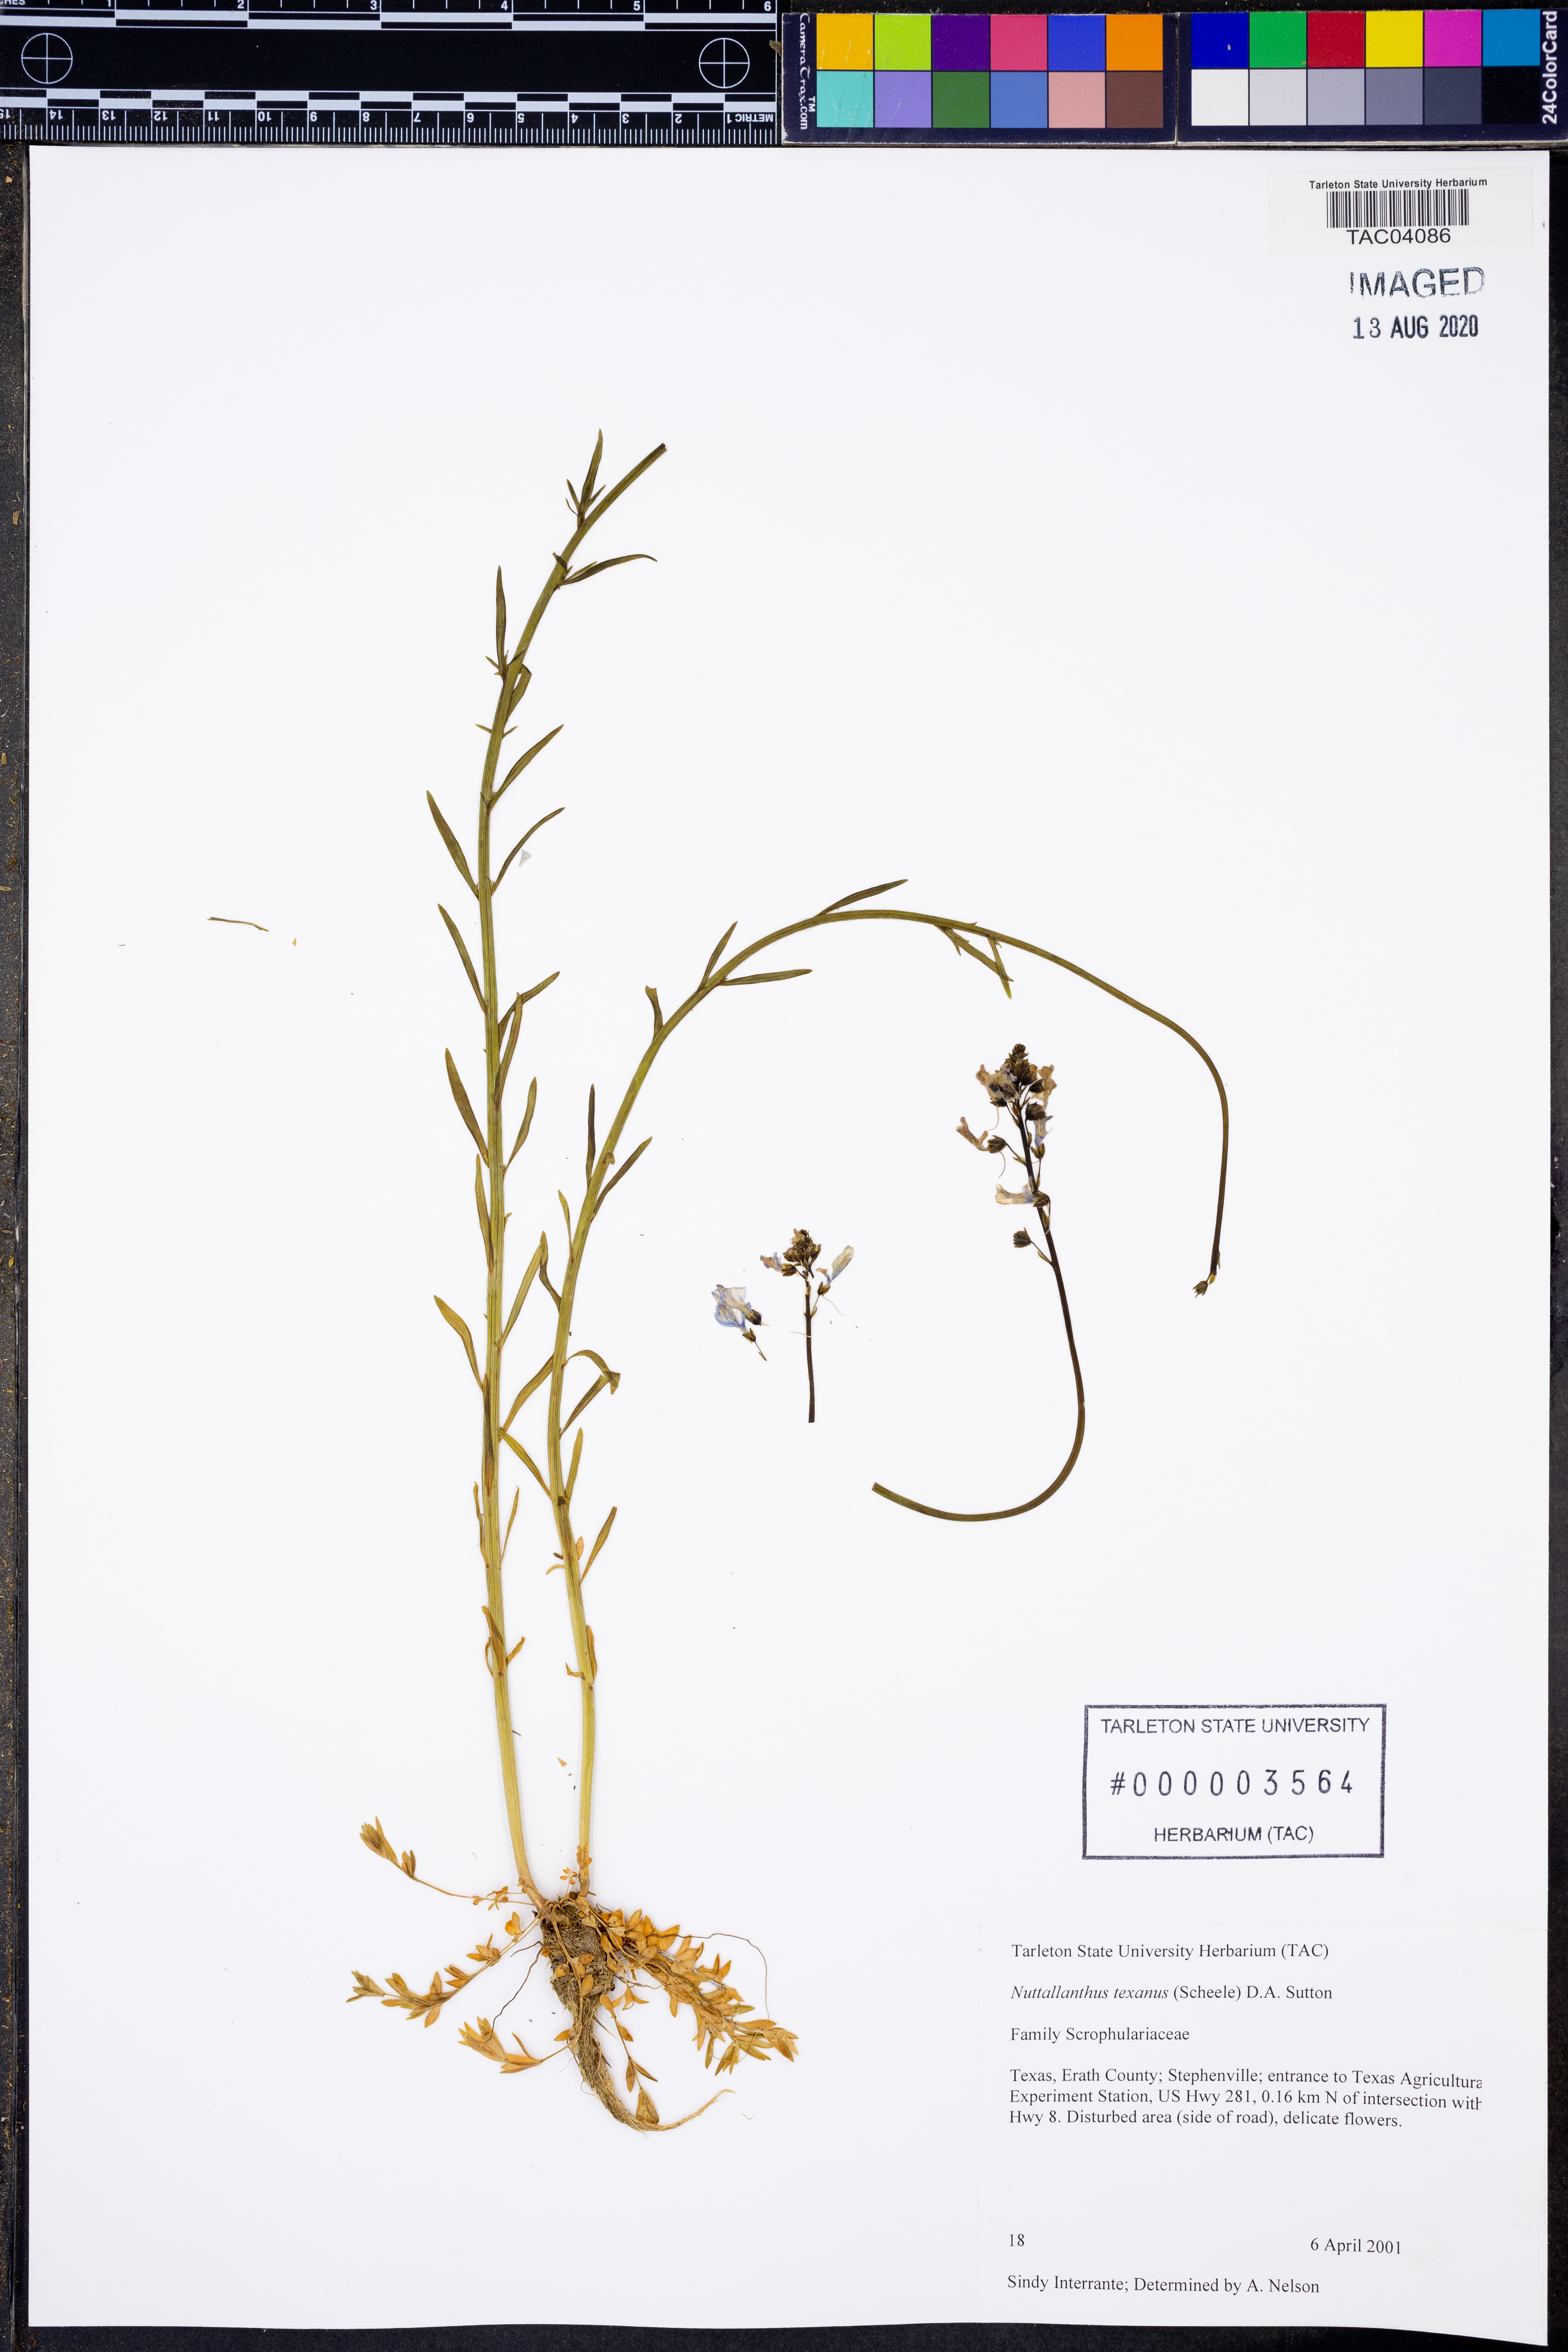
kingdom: Plantae
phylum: Tracheophyta
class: Magnoliopsida
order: Lamiales
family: Plantaginaceae
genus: Nuttallanthus
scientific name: Nuttallanthus texanus
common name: Texas toadflax
